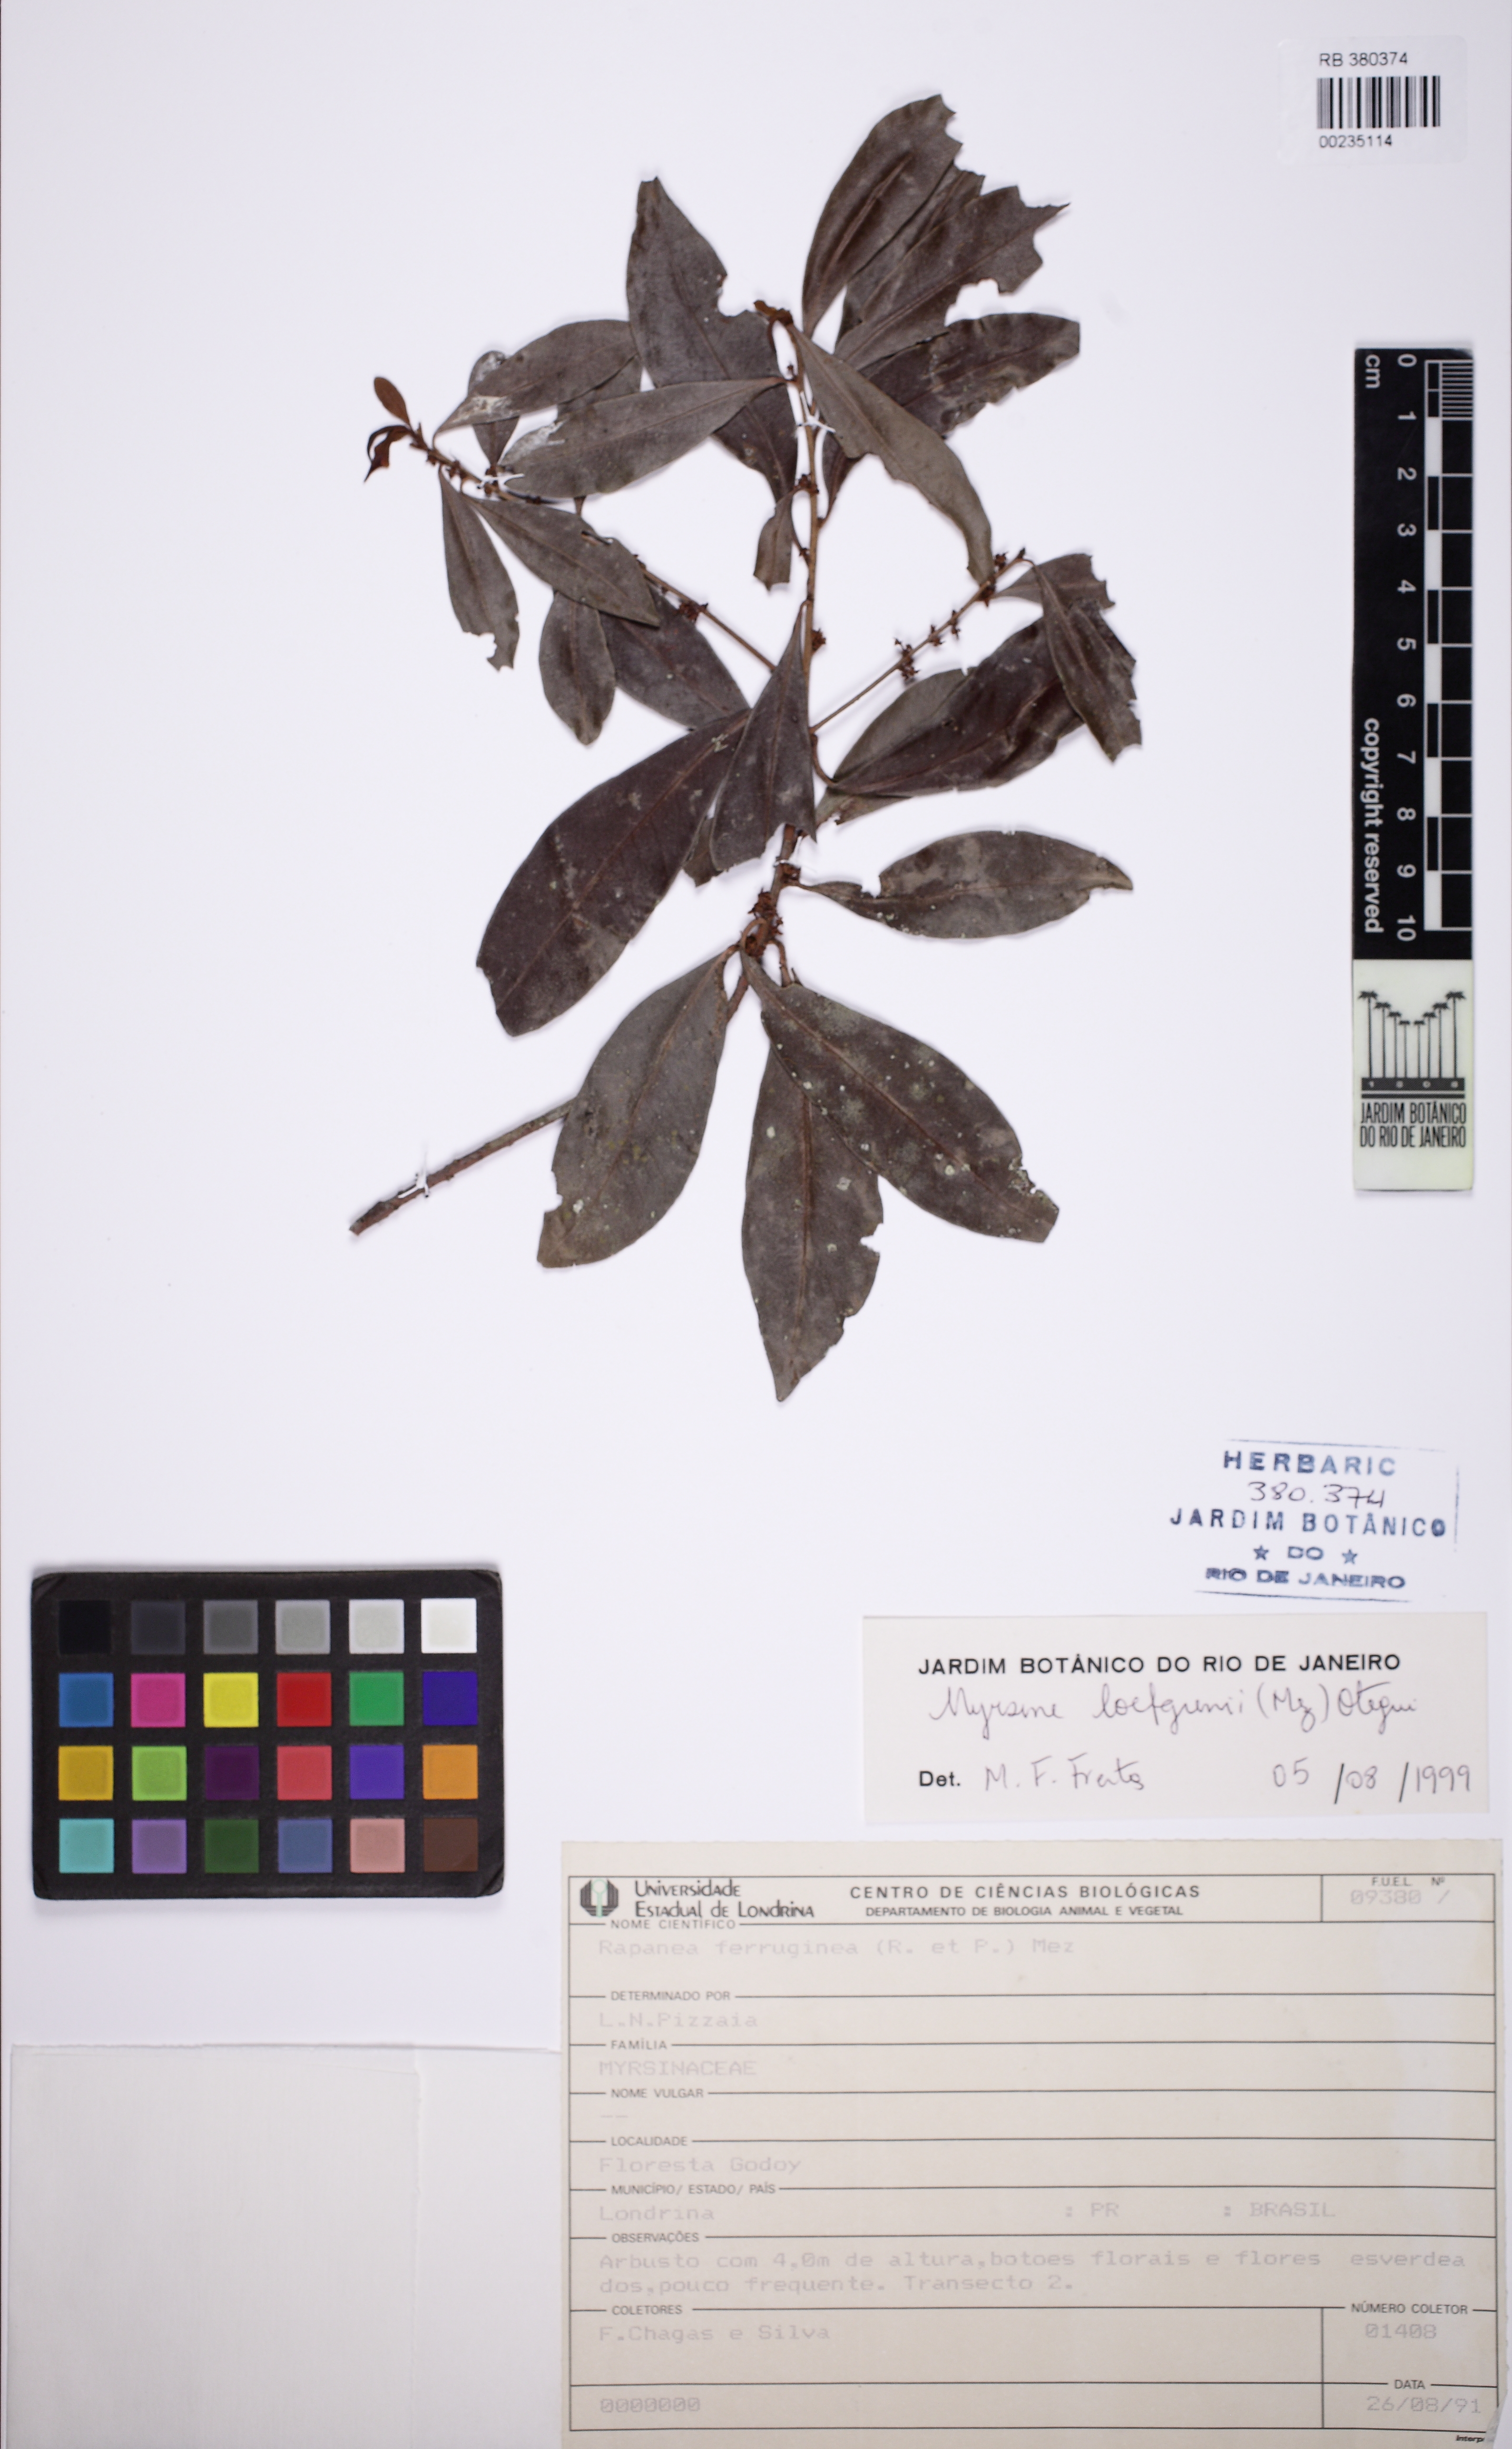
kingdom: Plantae
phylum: Tracheophyta
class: Magnoliopsida
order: Ericales
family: Primulaceae
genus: Myrsine
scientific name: Myrsine loefgrenii
